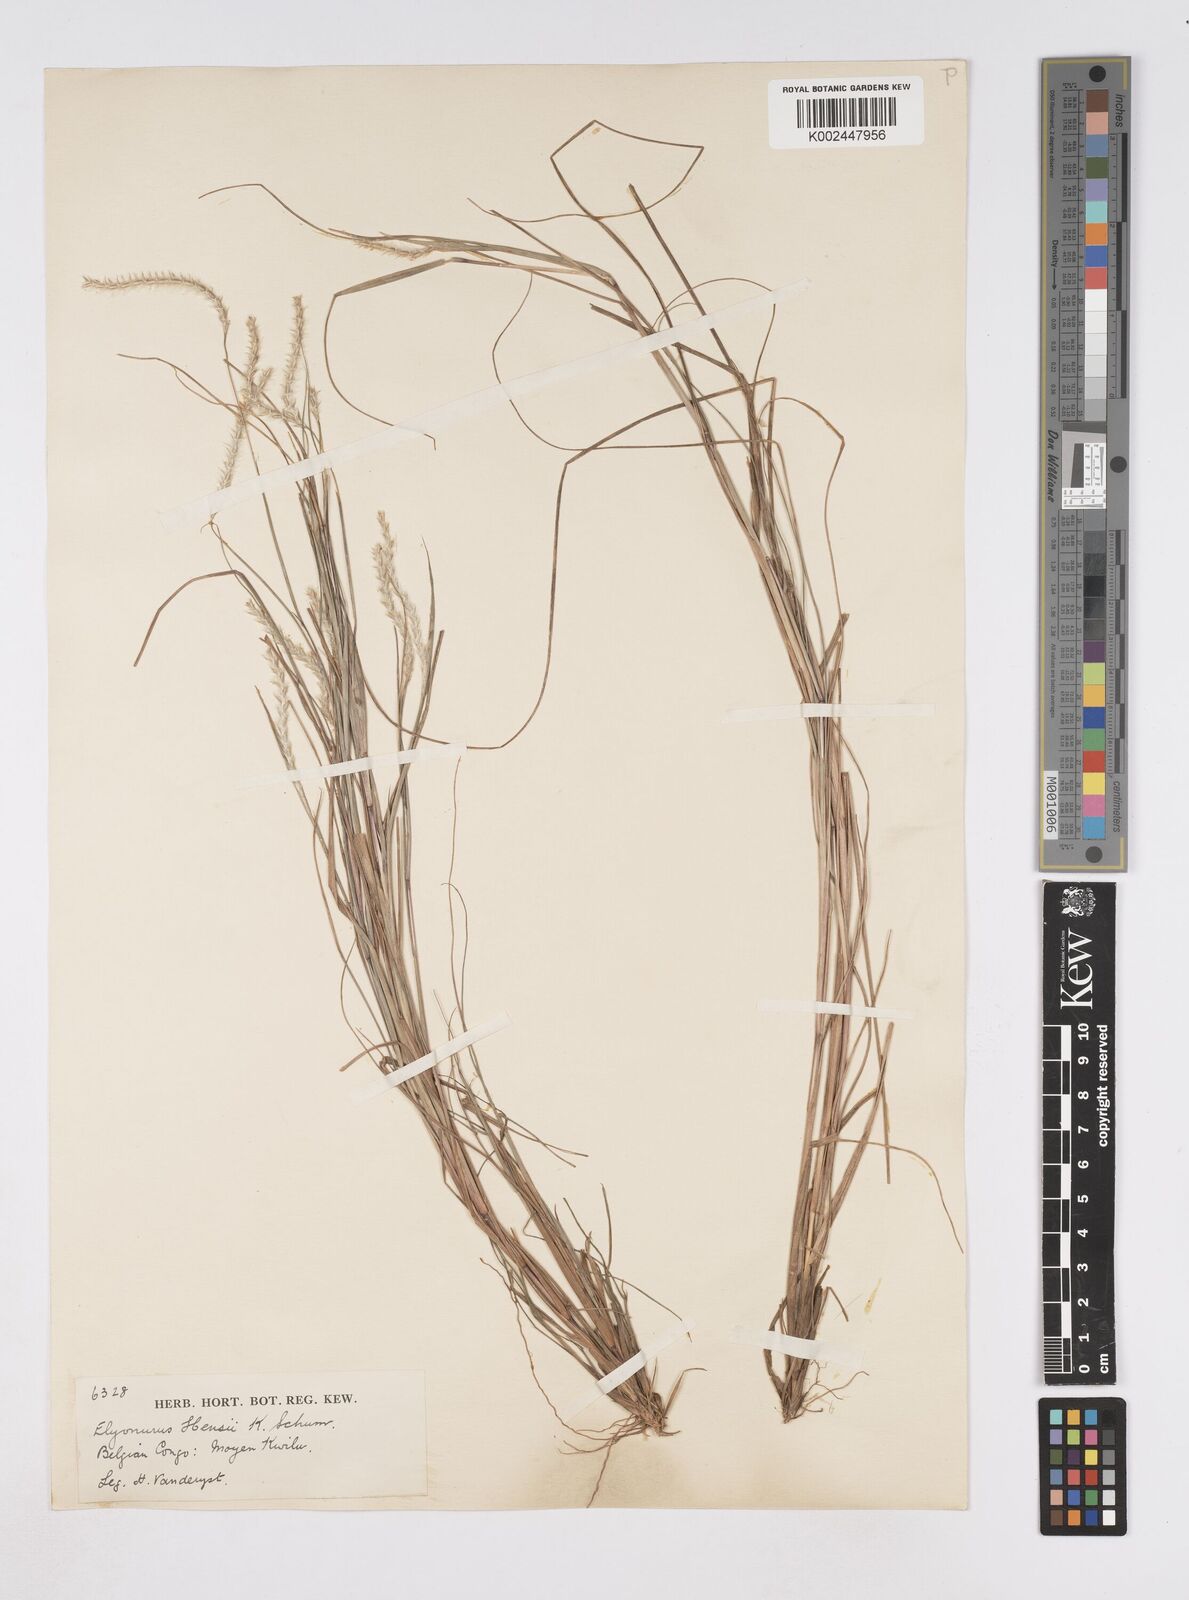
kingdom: Plantae
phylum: Tracheophyta
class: Liliopsida
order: Poales
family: Poaceae
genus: Elionurus
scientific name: Elionurus hensii
